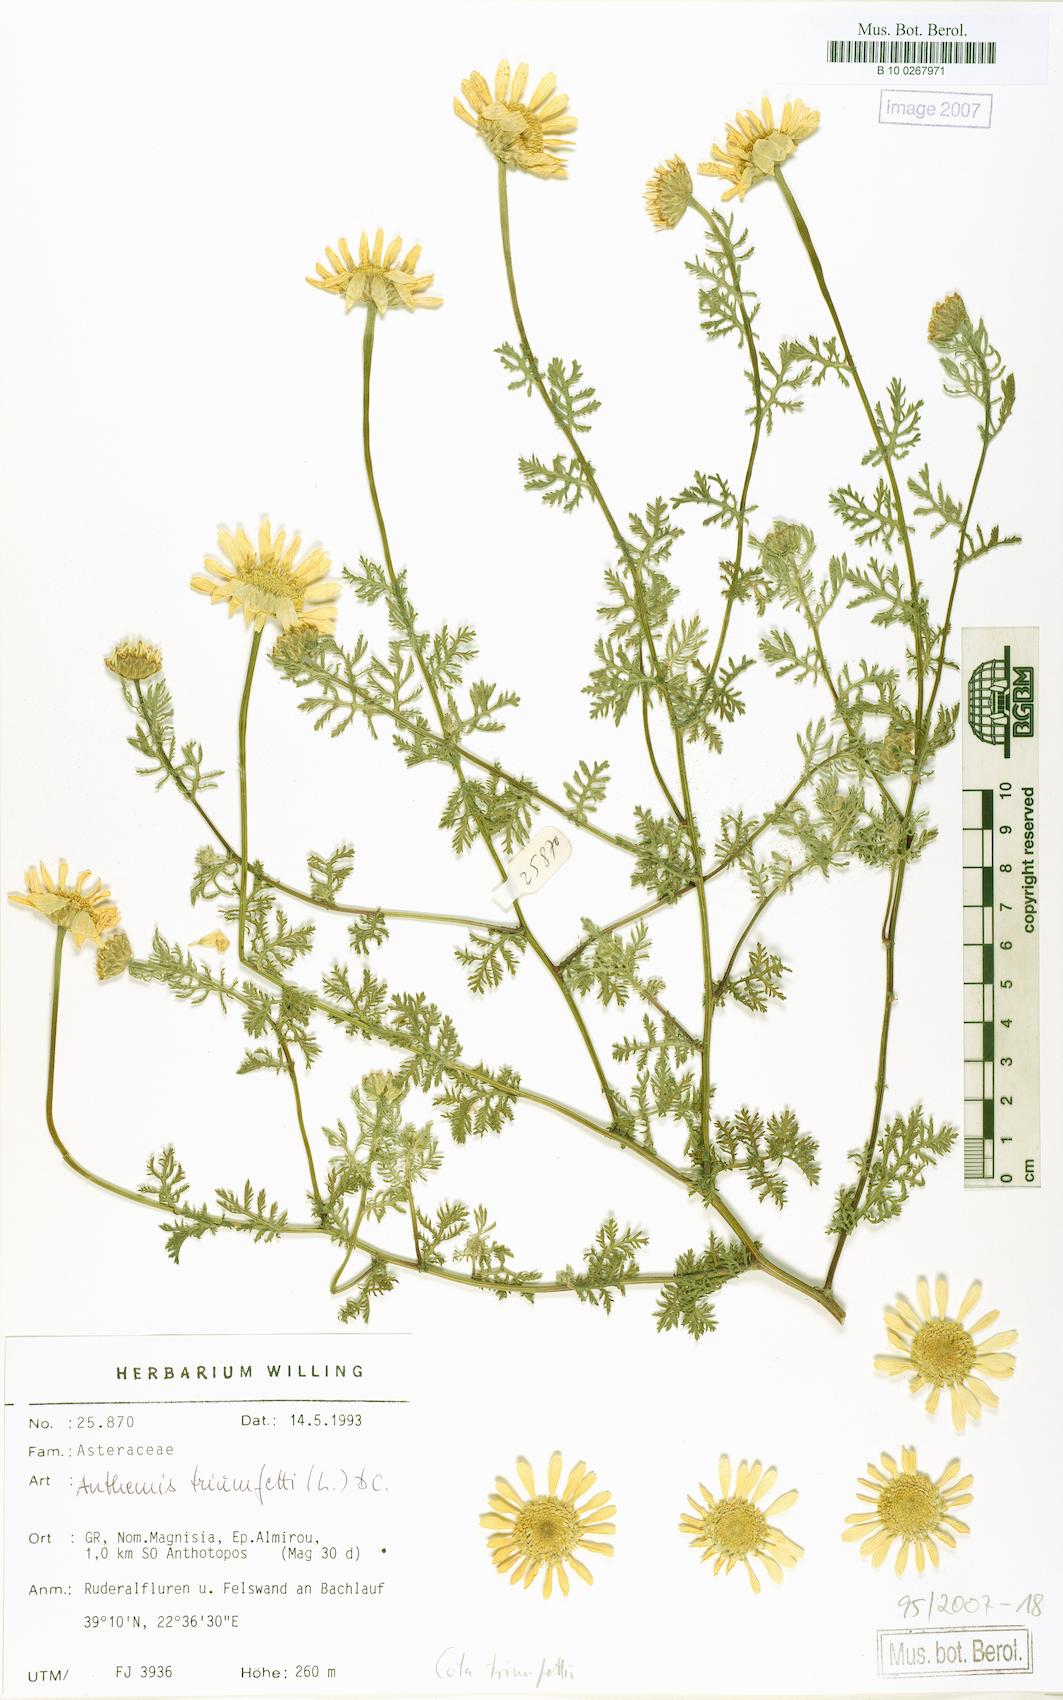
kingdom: Plantae
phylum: Tracheophyta
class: Magnoliopsida
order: Asterales
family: Asteraceae
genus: Cota
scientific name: Cota altissima
